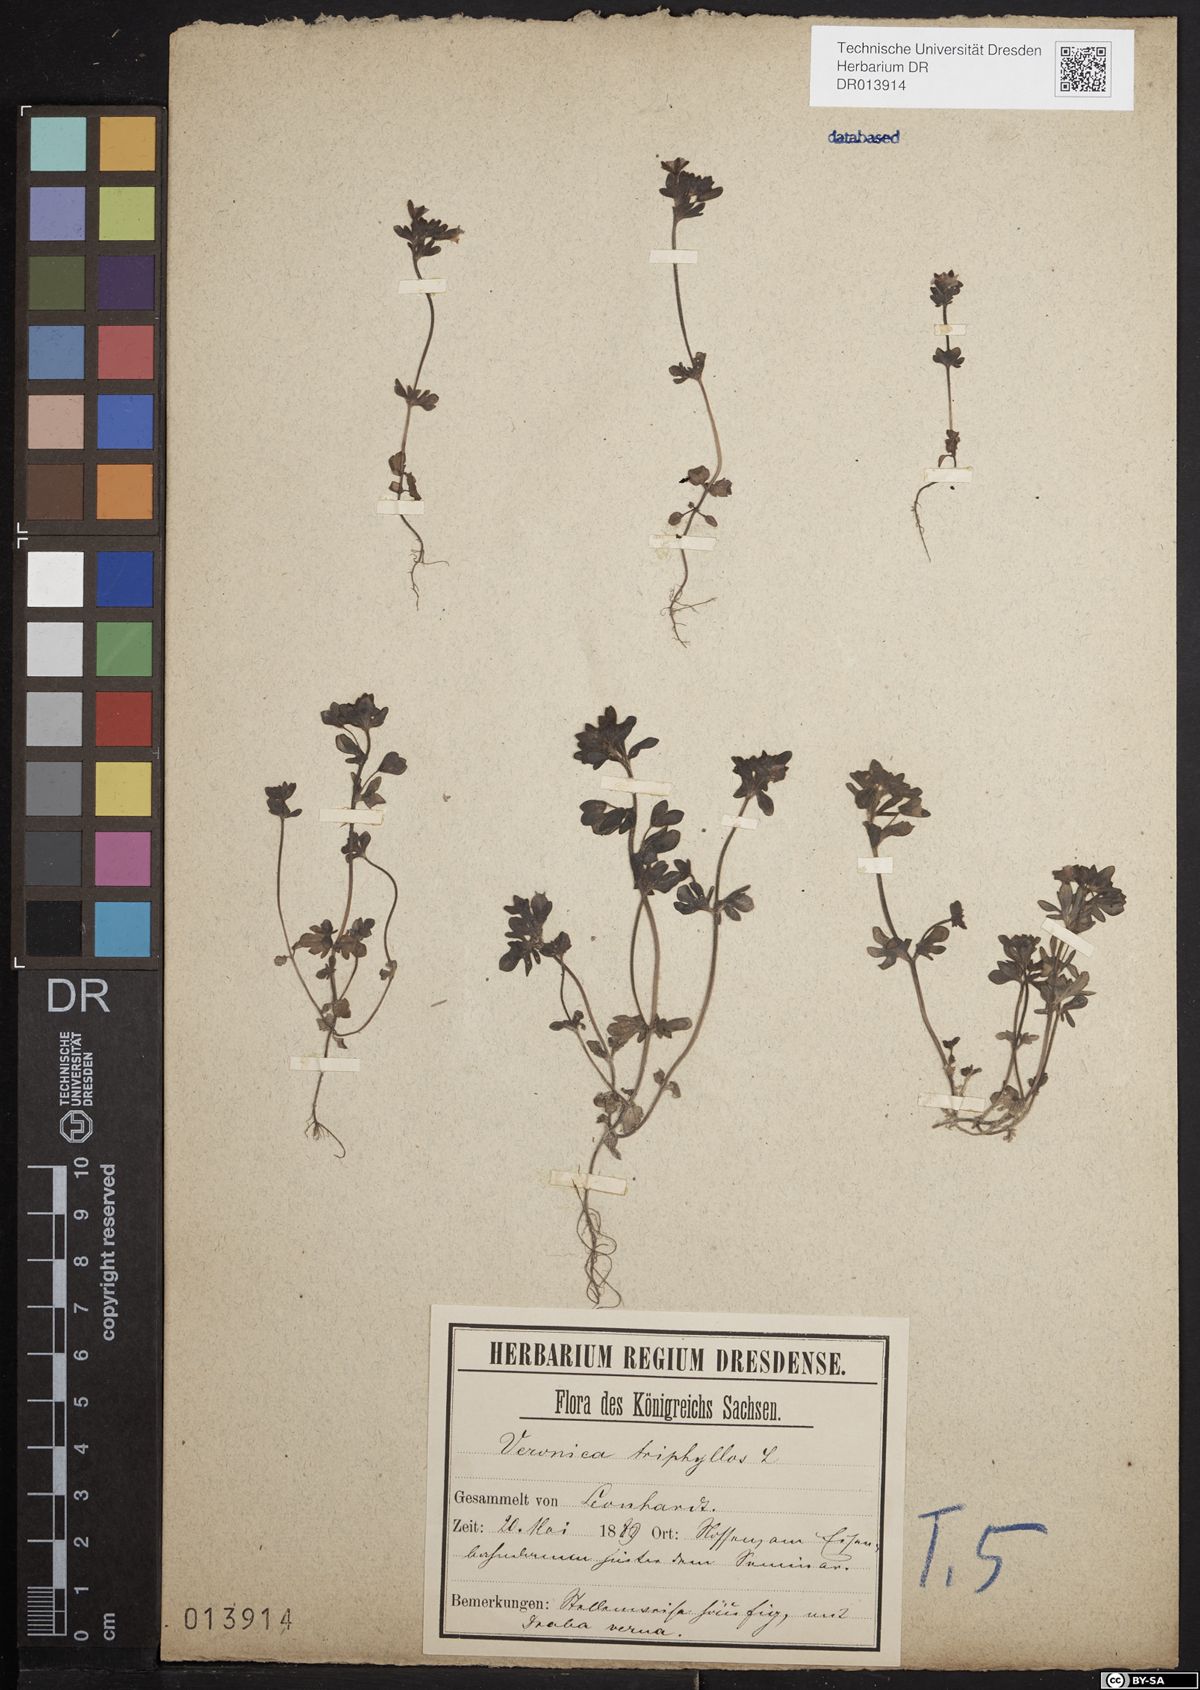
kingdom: Plantae
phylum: Tracheophyta
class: Magnoliopsida
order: Lamiales
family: Plantaginaceae
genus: Veronica
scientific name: Veronica triphyllos
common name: Fingered speedwell
